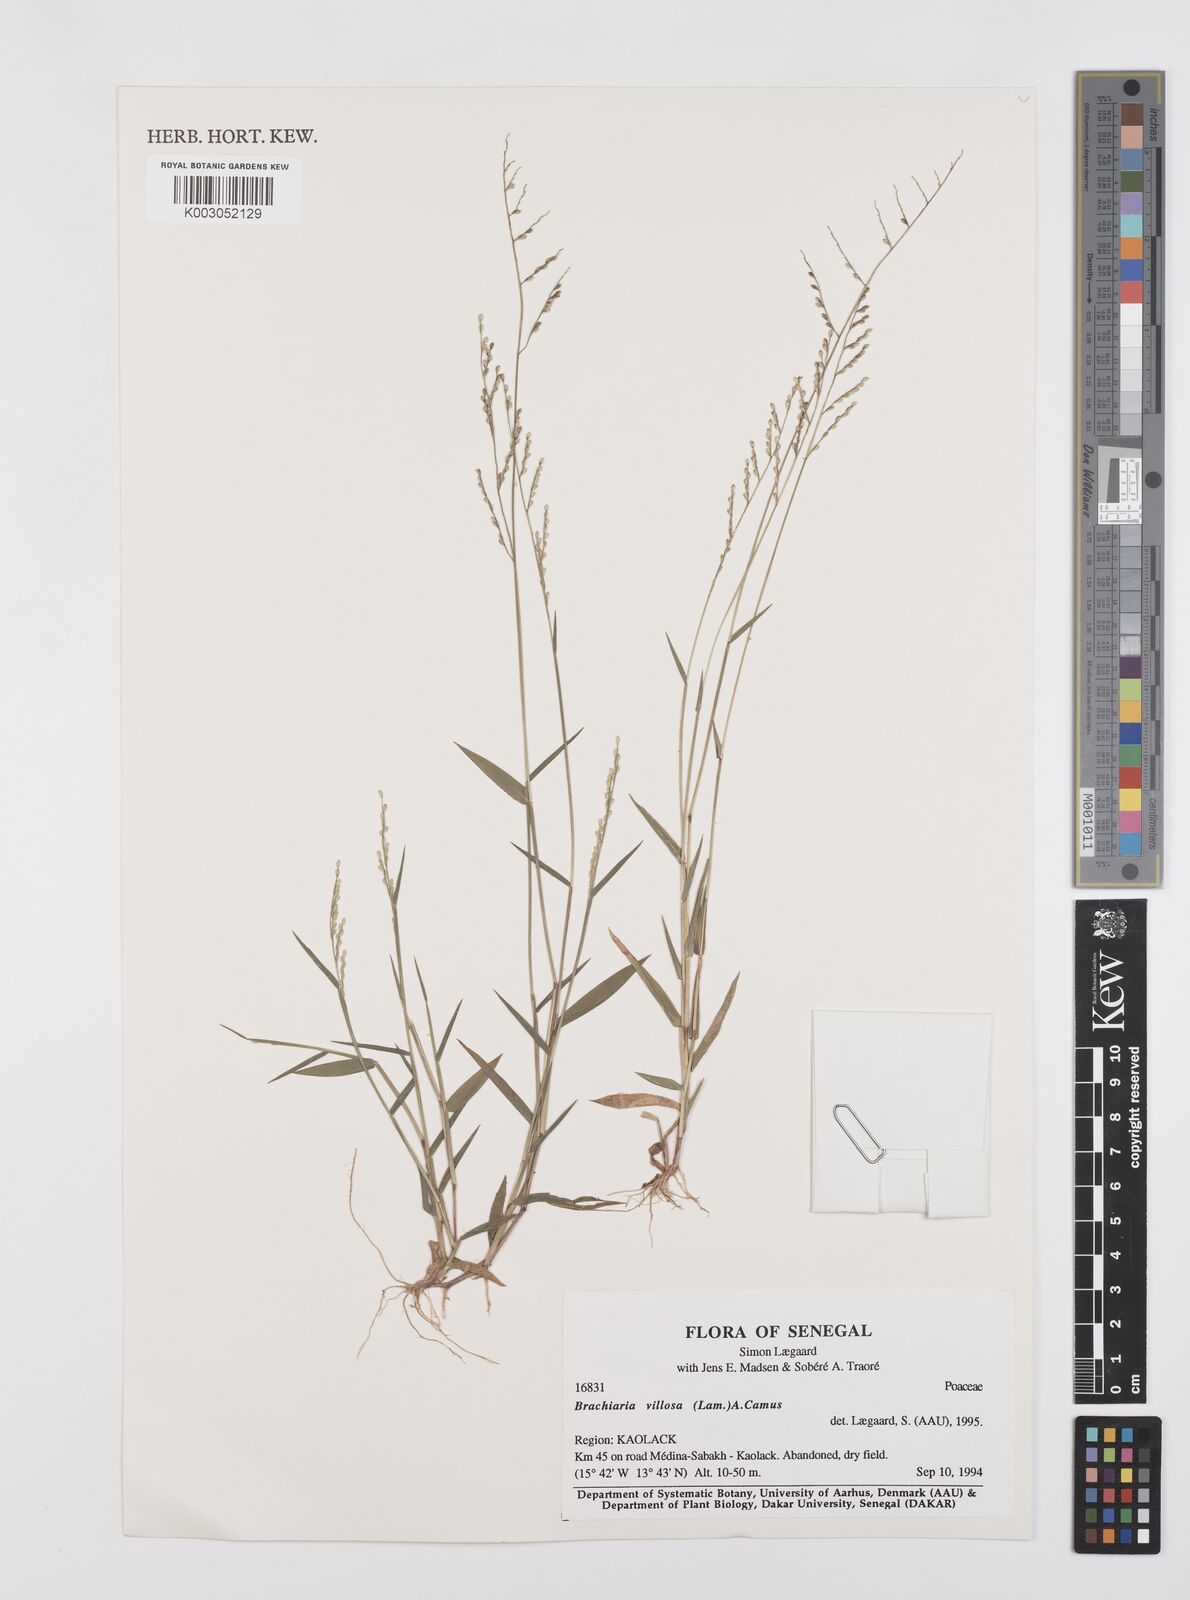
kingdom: Plantae
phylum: Tracheophyta
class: Liliopsida
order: Poales
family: Poaceae
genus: Urochloa
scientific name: Urochloa villosa
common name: Hairy signalgrass
